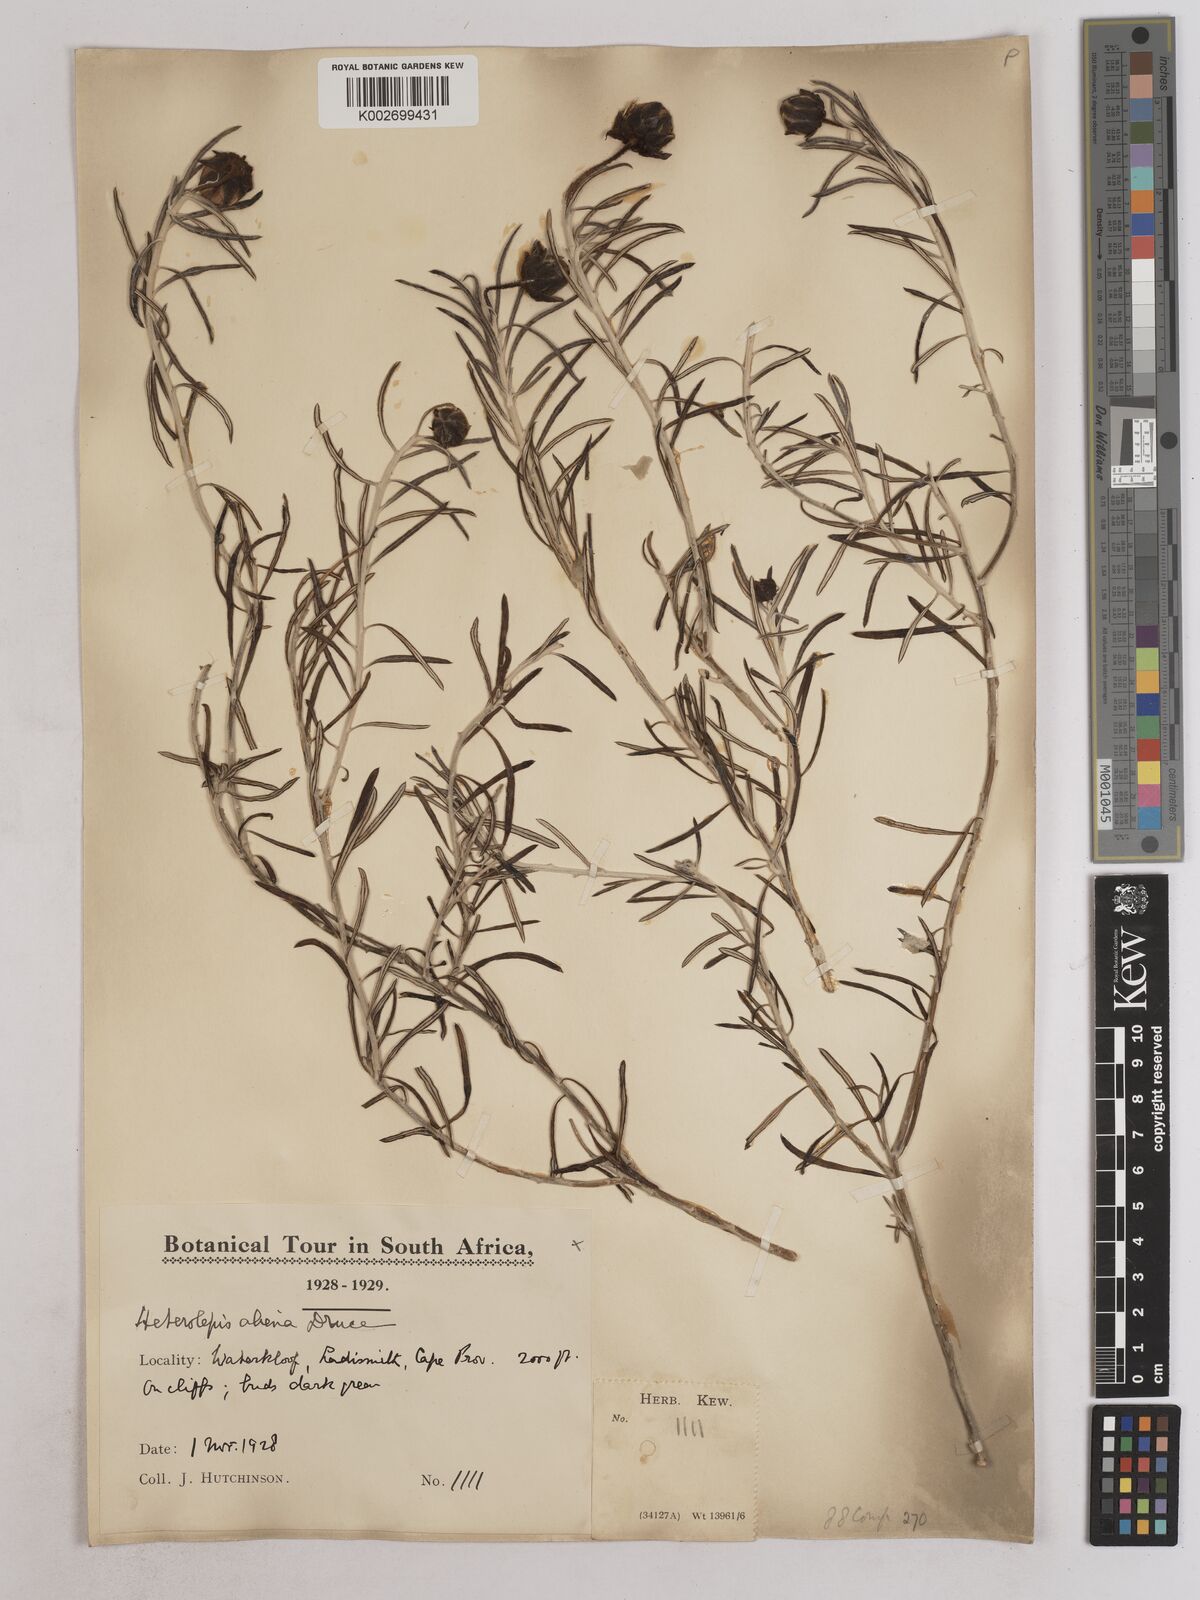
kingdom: Plantae
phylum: Tracheophyta
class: Magnoliopsida
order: Asterales
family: Asteraceae
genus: Heterolepis
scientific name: Heterolepis aliena
